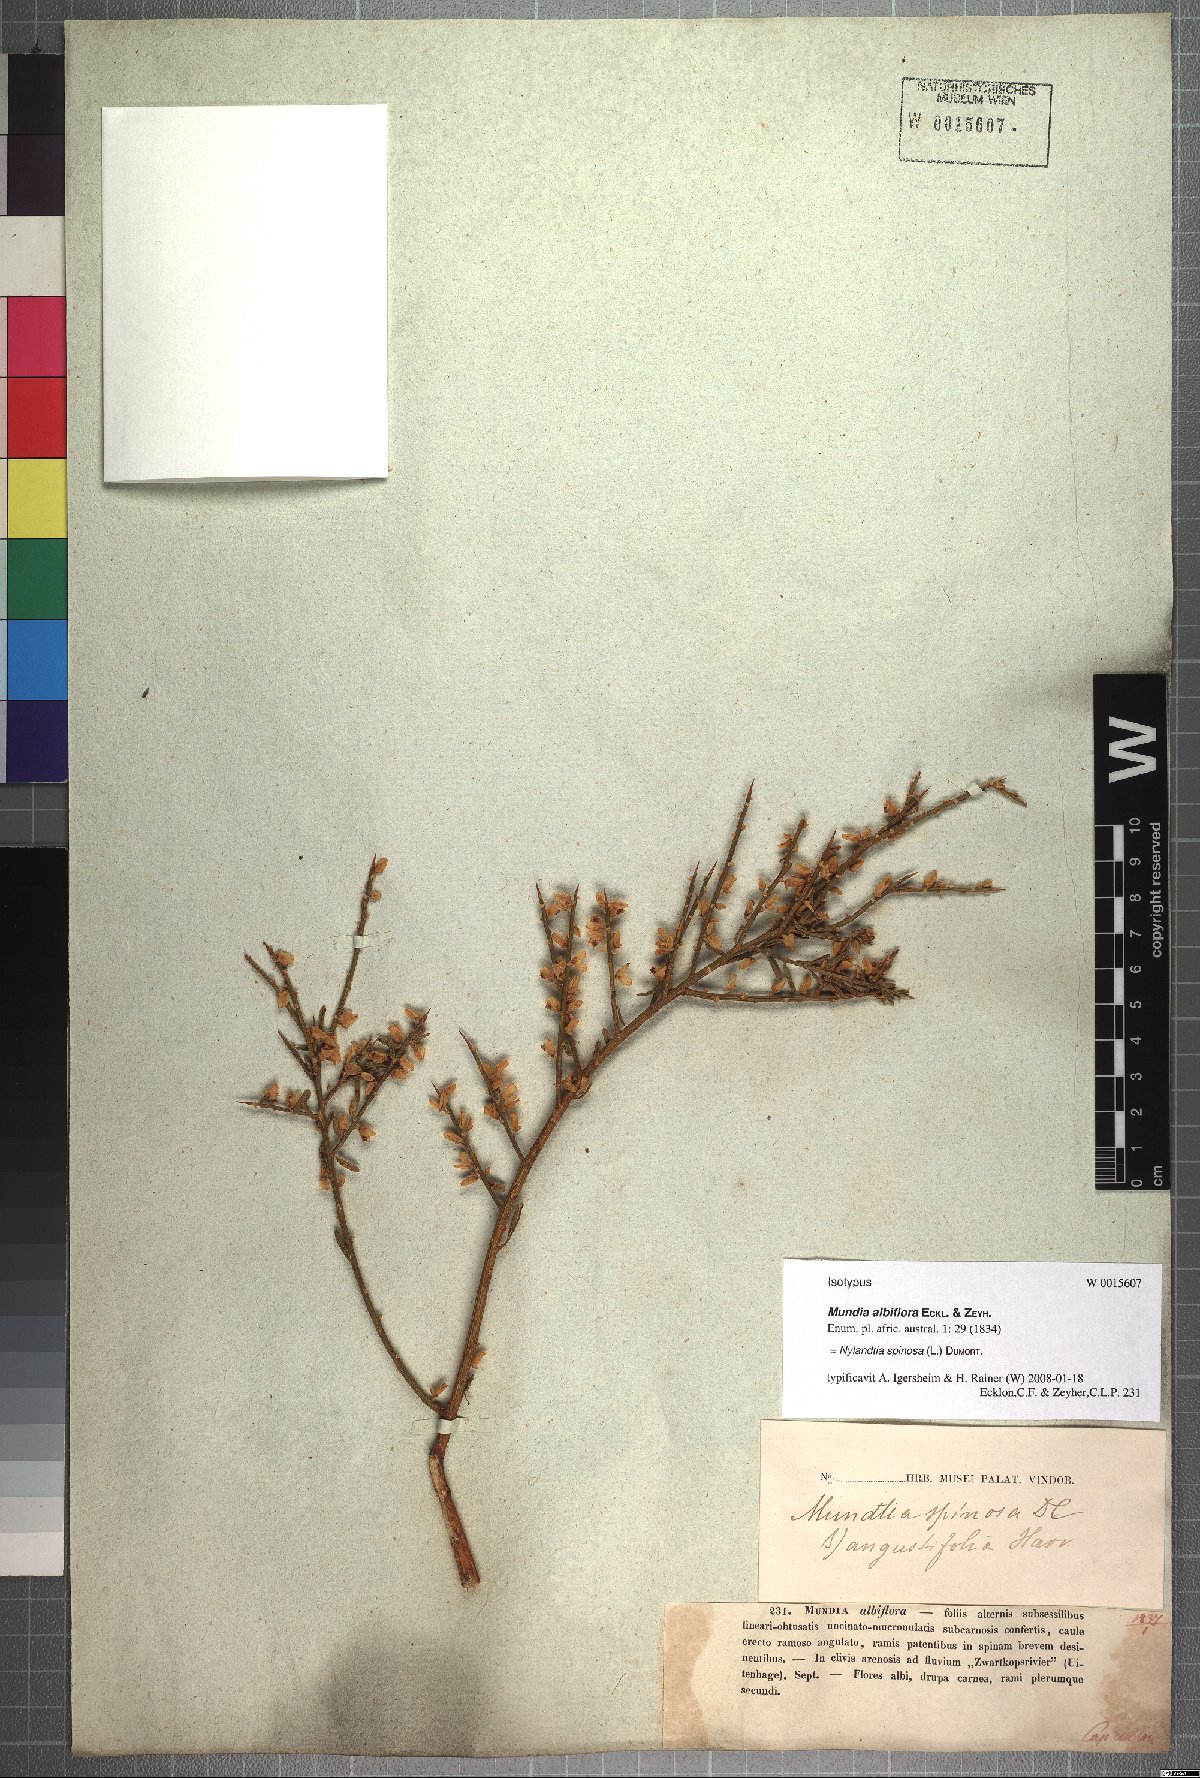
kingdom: Plantae
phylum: Tracheophyta
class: Magnoliopsida
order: Fabales
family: Polygalaceae
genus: Muraltia
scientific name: Muraltia spinosa
